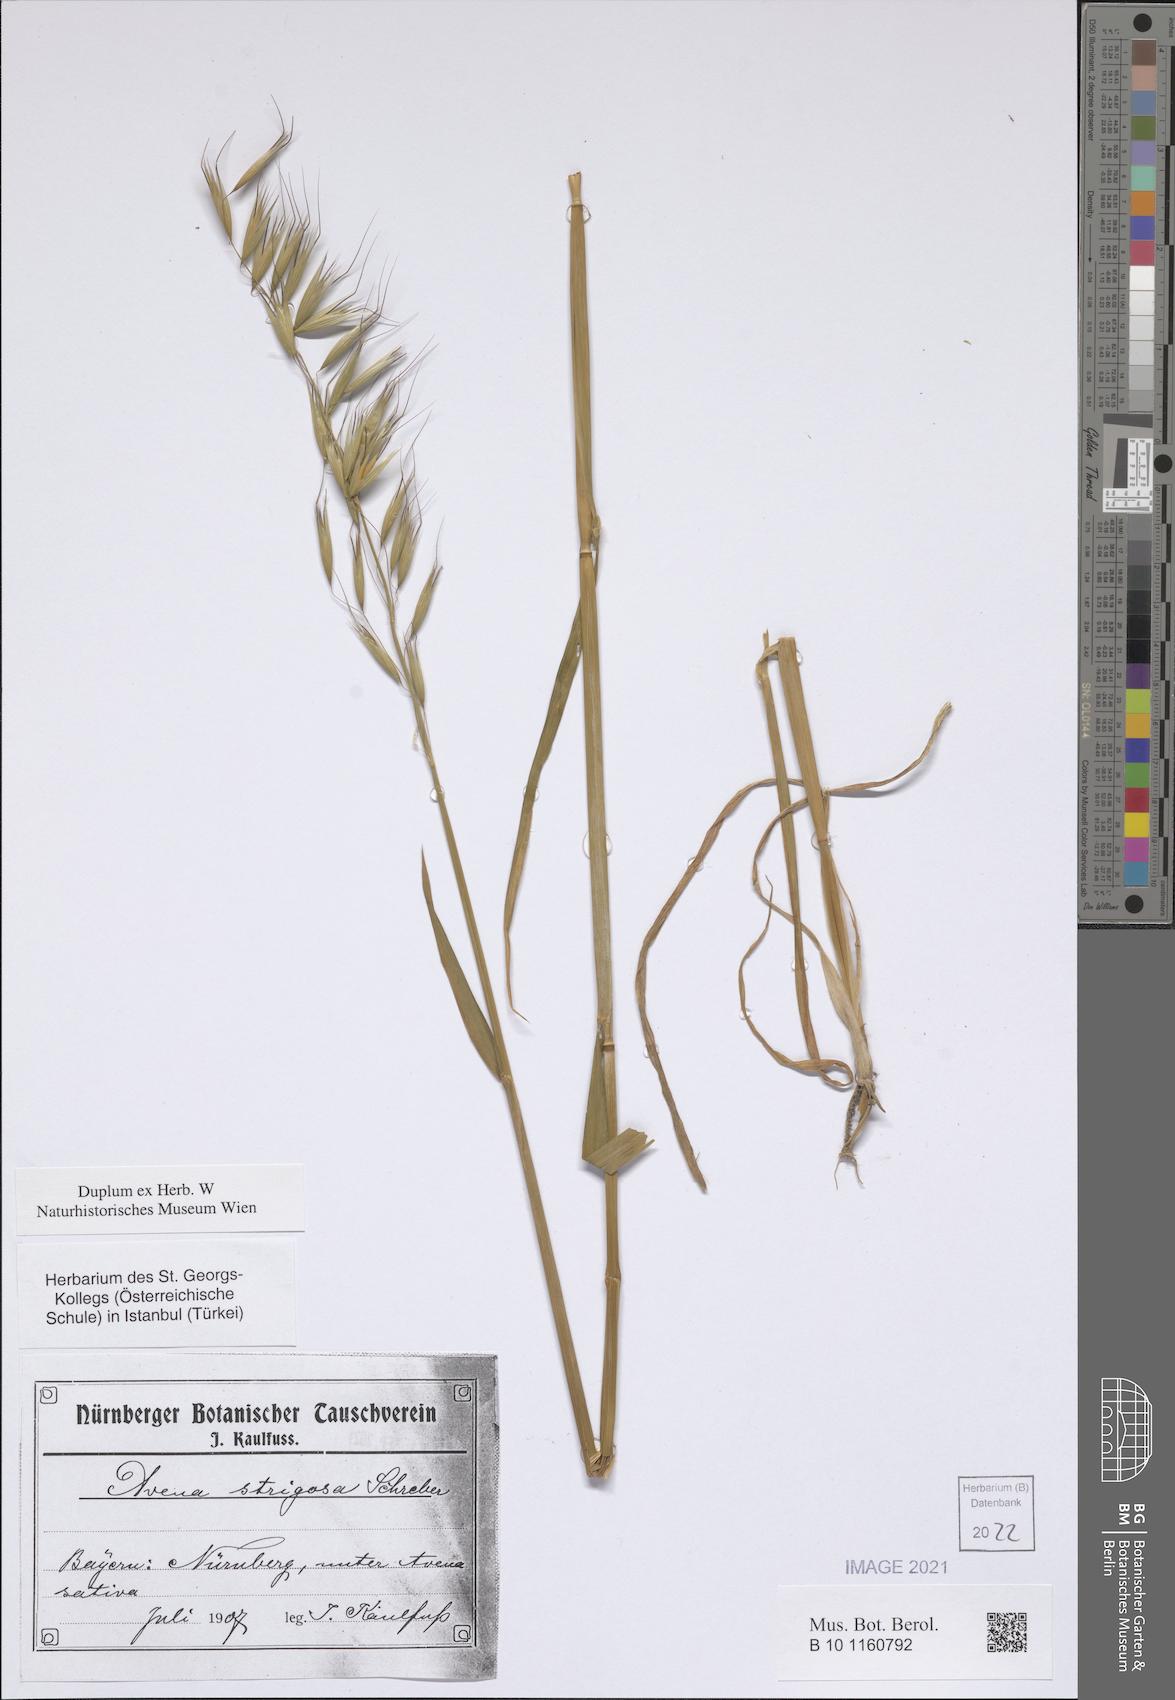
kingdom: Plantae
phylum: Tracheophyta
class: Liliopsida
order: Poales
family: Poaceae
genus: Avena
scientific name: Avena strigosa
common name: Bristle oat
